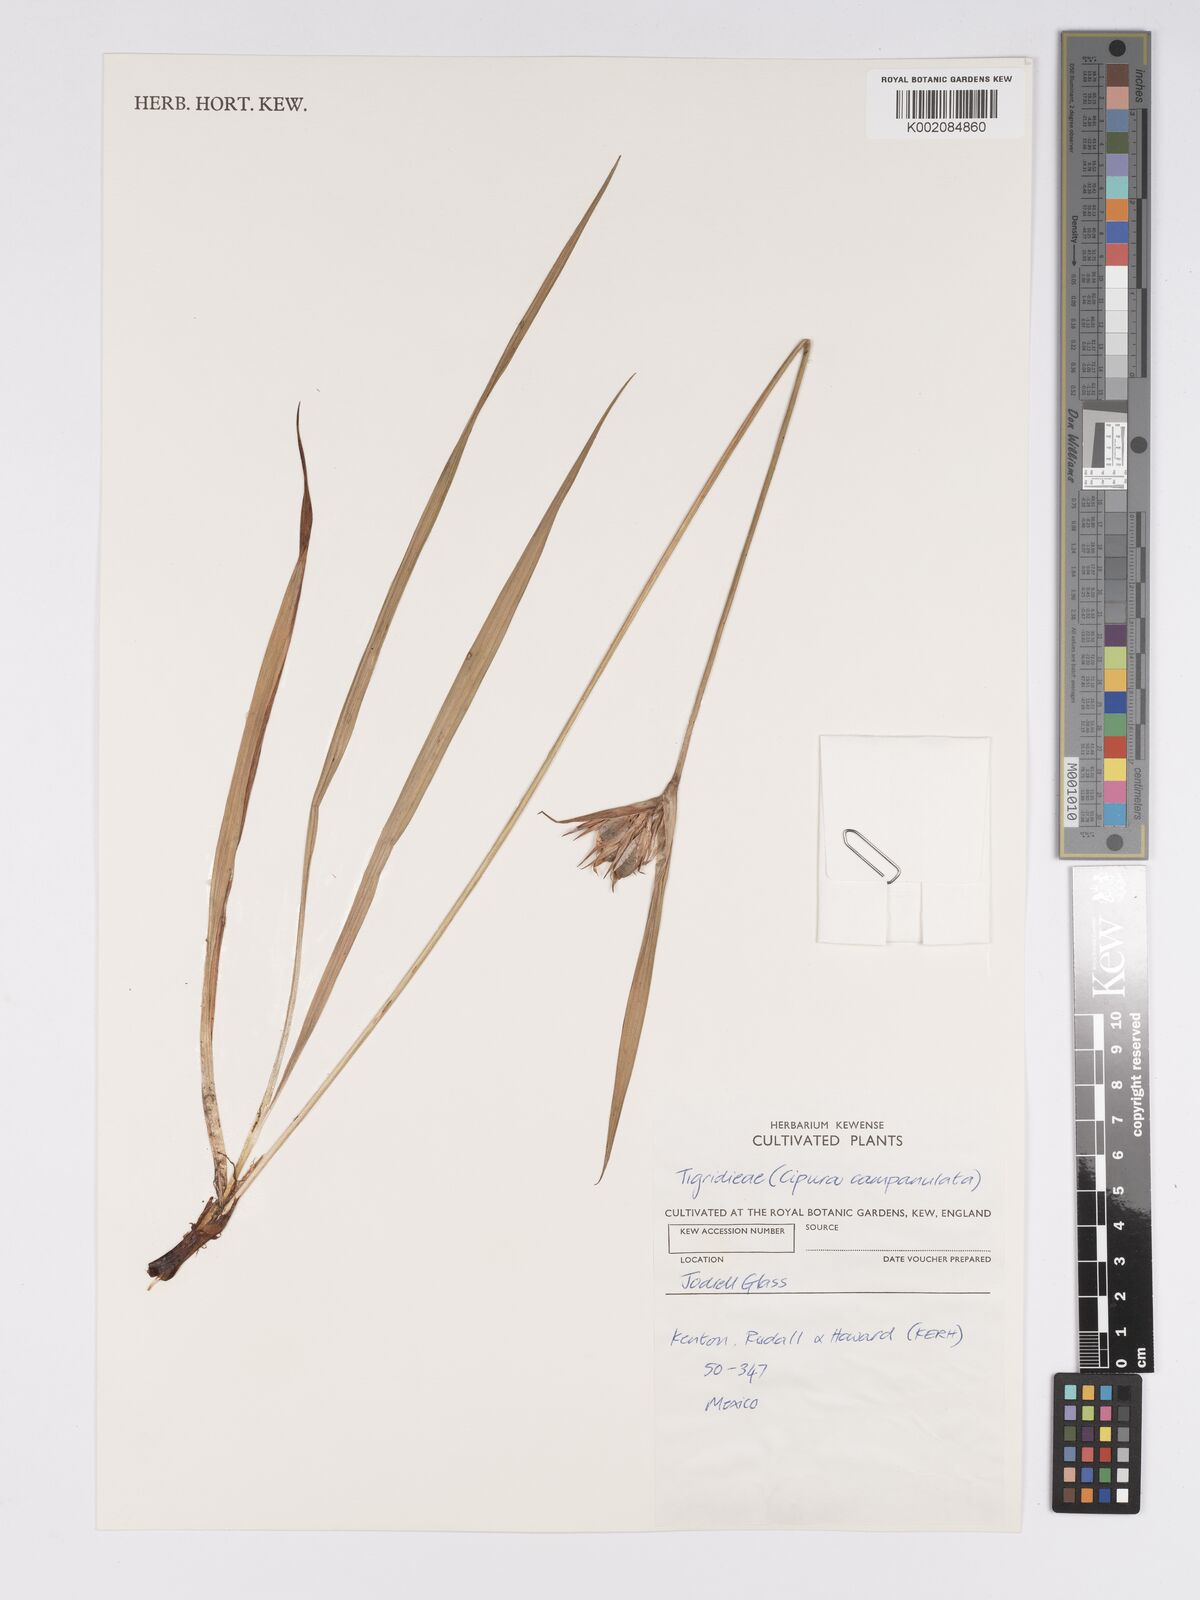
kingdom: Plantae
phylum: Tracheophyta
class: Liliopsida
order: Asparagales
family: Iridaceae
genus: Cipura
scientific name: Cipura campanulata
